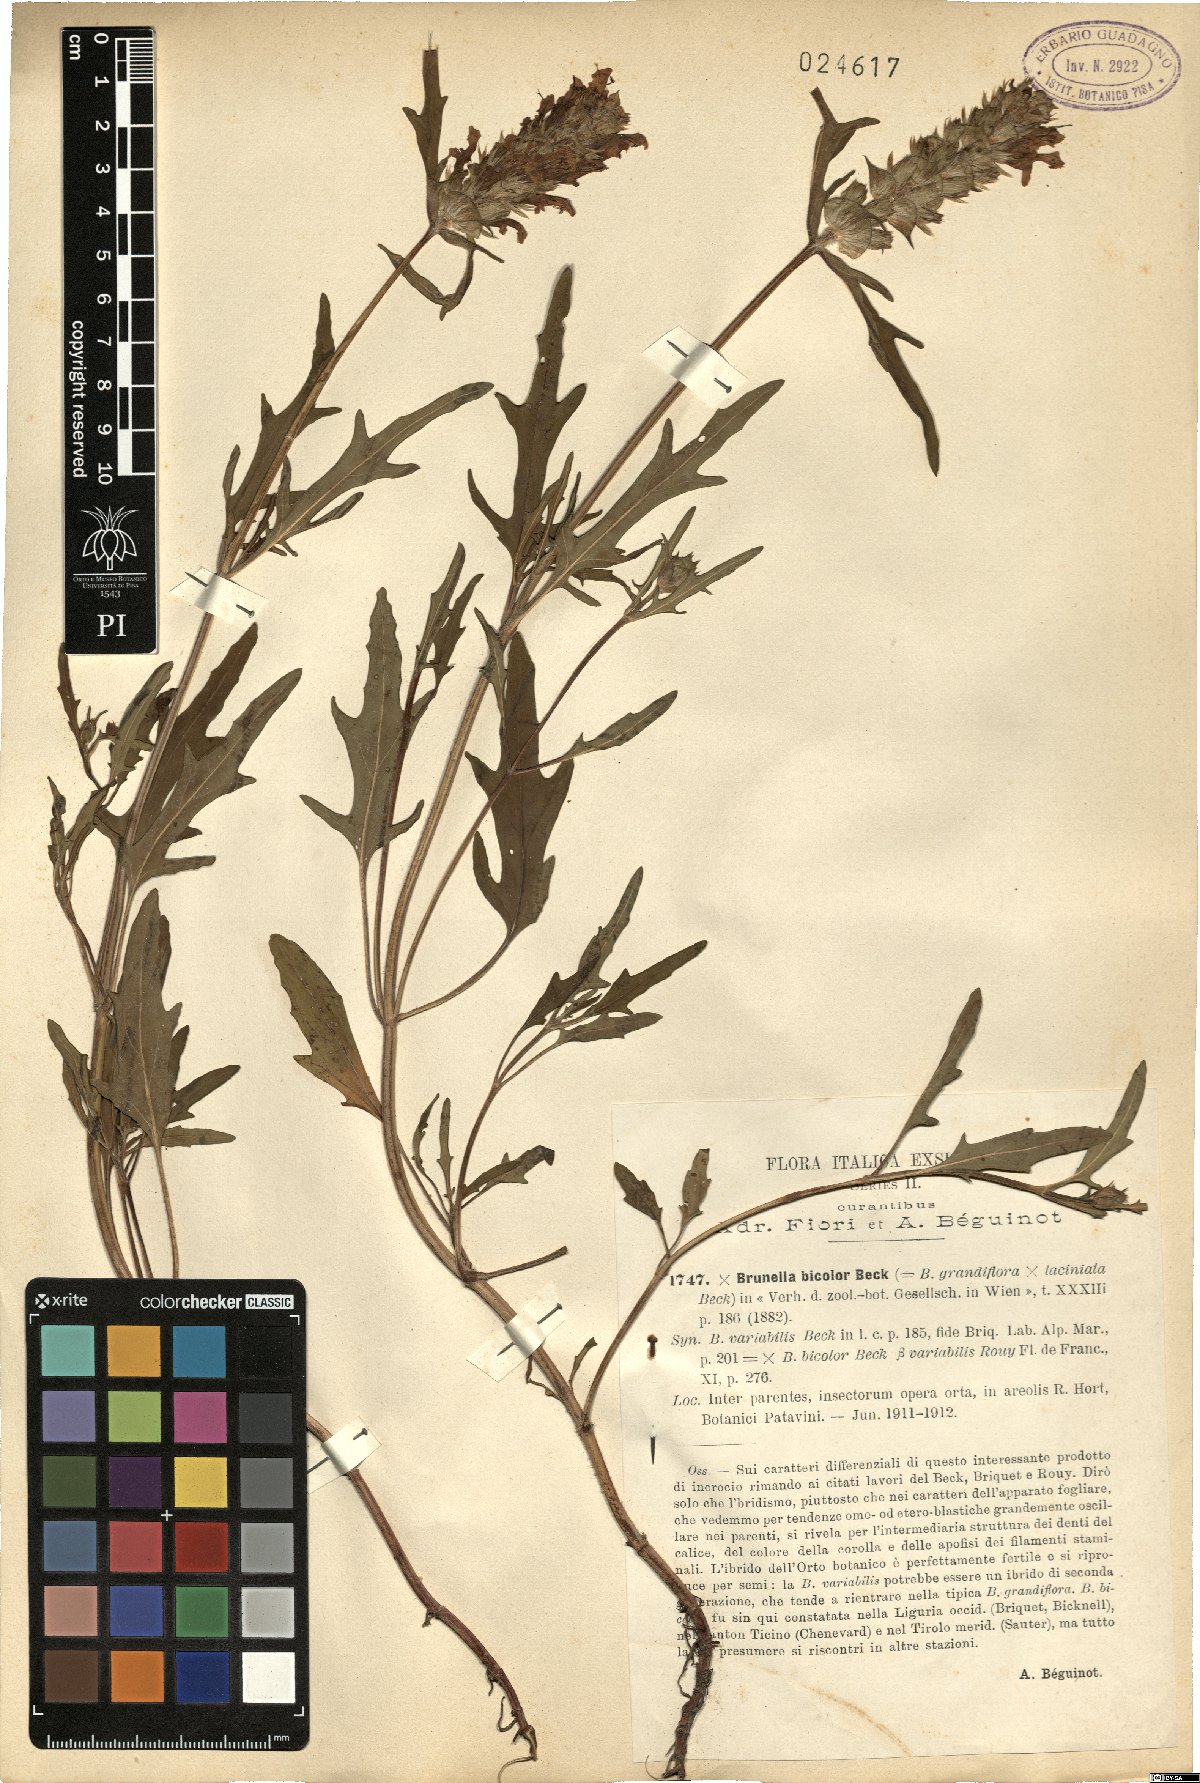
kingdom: Plantae
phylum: Tracheophyta
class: Magnoliopsida
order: Lamiales
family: Lamiaceae
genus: Prunella
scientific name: Prunella bicolor
